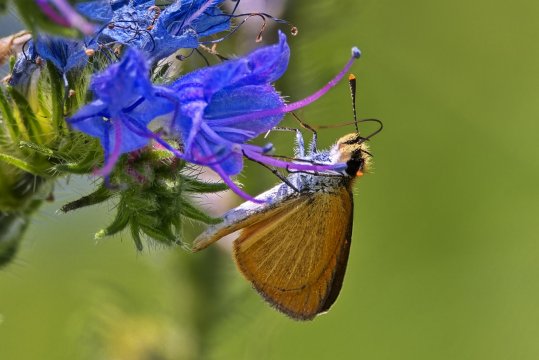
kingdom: Animalia
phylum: Arthropoda
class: Insecta
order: Lepidoptera
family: Hesperiidae
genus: Ancyloxypha
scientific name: Ancyloxypha numitor
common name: Least Skipper
